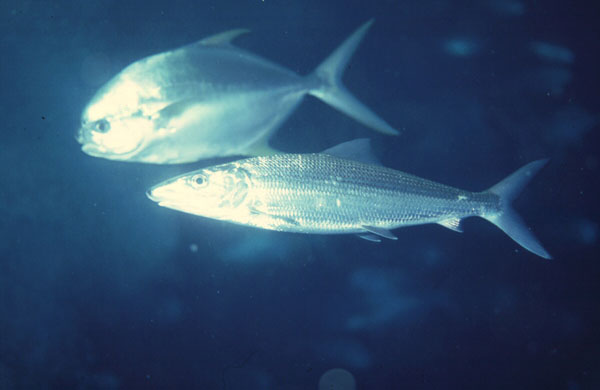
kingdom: Animalia
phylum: Chordata
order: Albuliformes
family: Albulidae
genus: Albula
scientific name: Albula glossodonta
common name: Shortjaw bonefish
